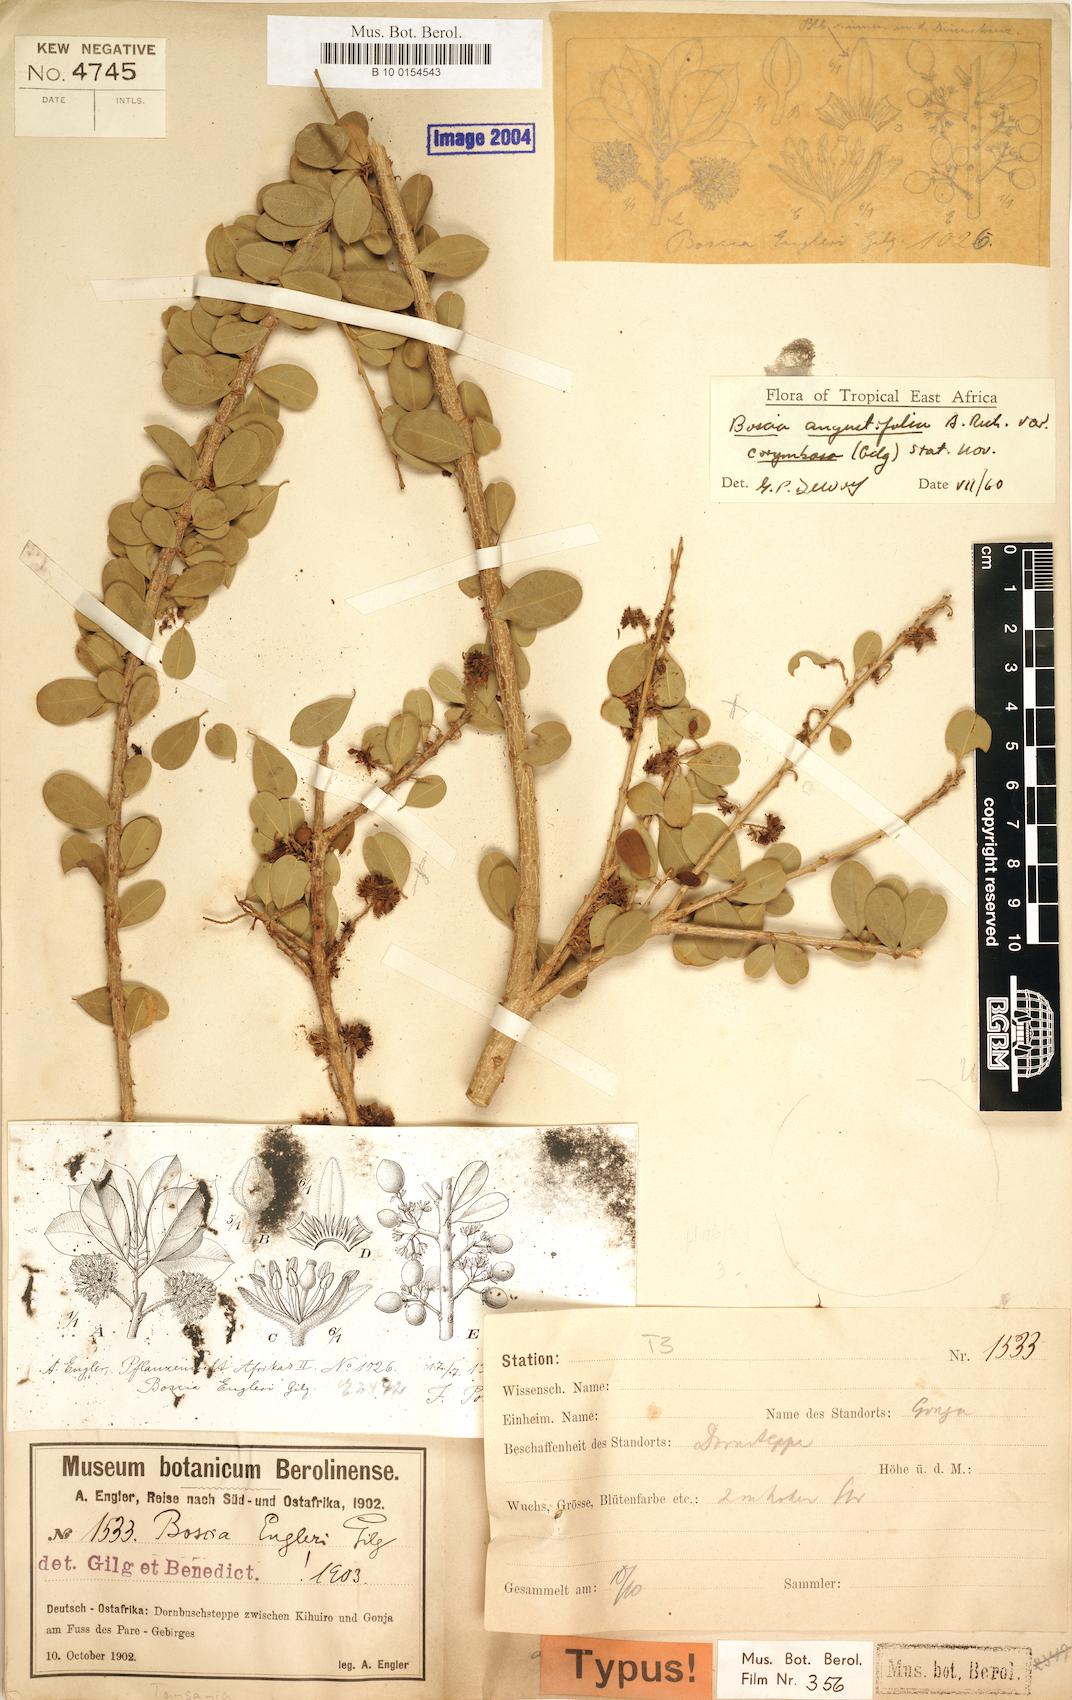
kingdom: Plantae
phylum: Tracheophyta
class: Magnoliopsida
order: Brassicales
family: Capparaceae
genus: Boscia
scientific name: Boscia angustifolia
